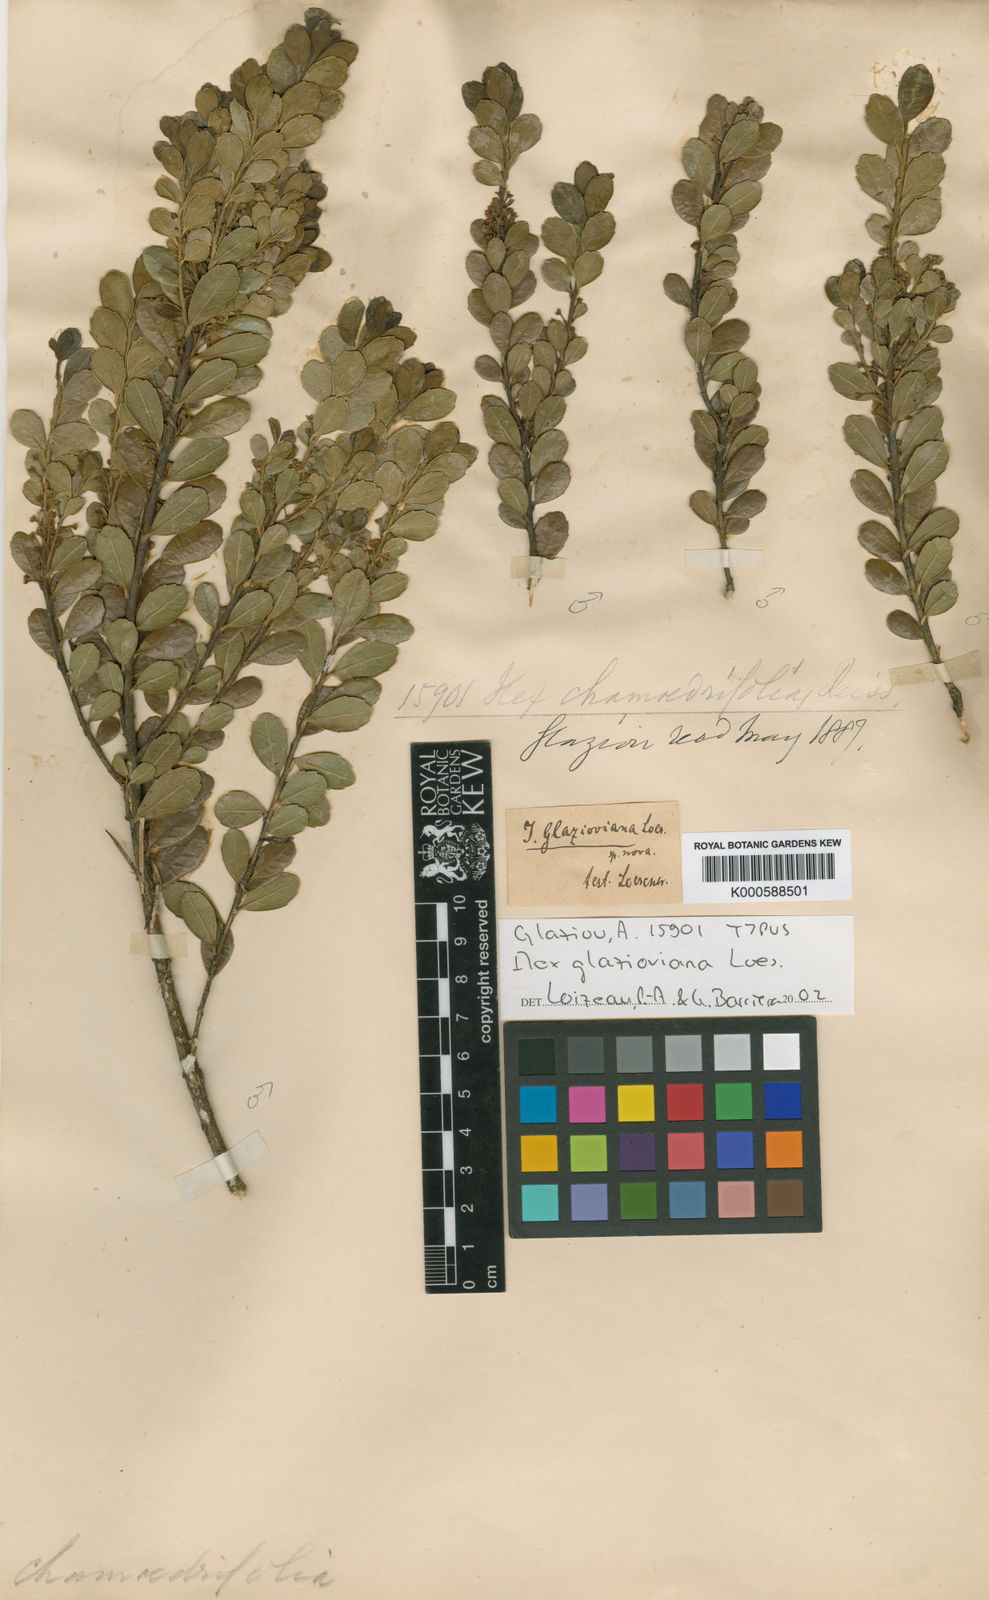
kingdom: Plantae
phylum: Tracheophyta
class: Magnoliopsida
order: Aquifoliales
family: Aquifoliaceae
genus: Ilex
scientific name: Ilex glazioviana
